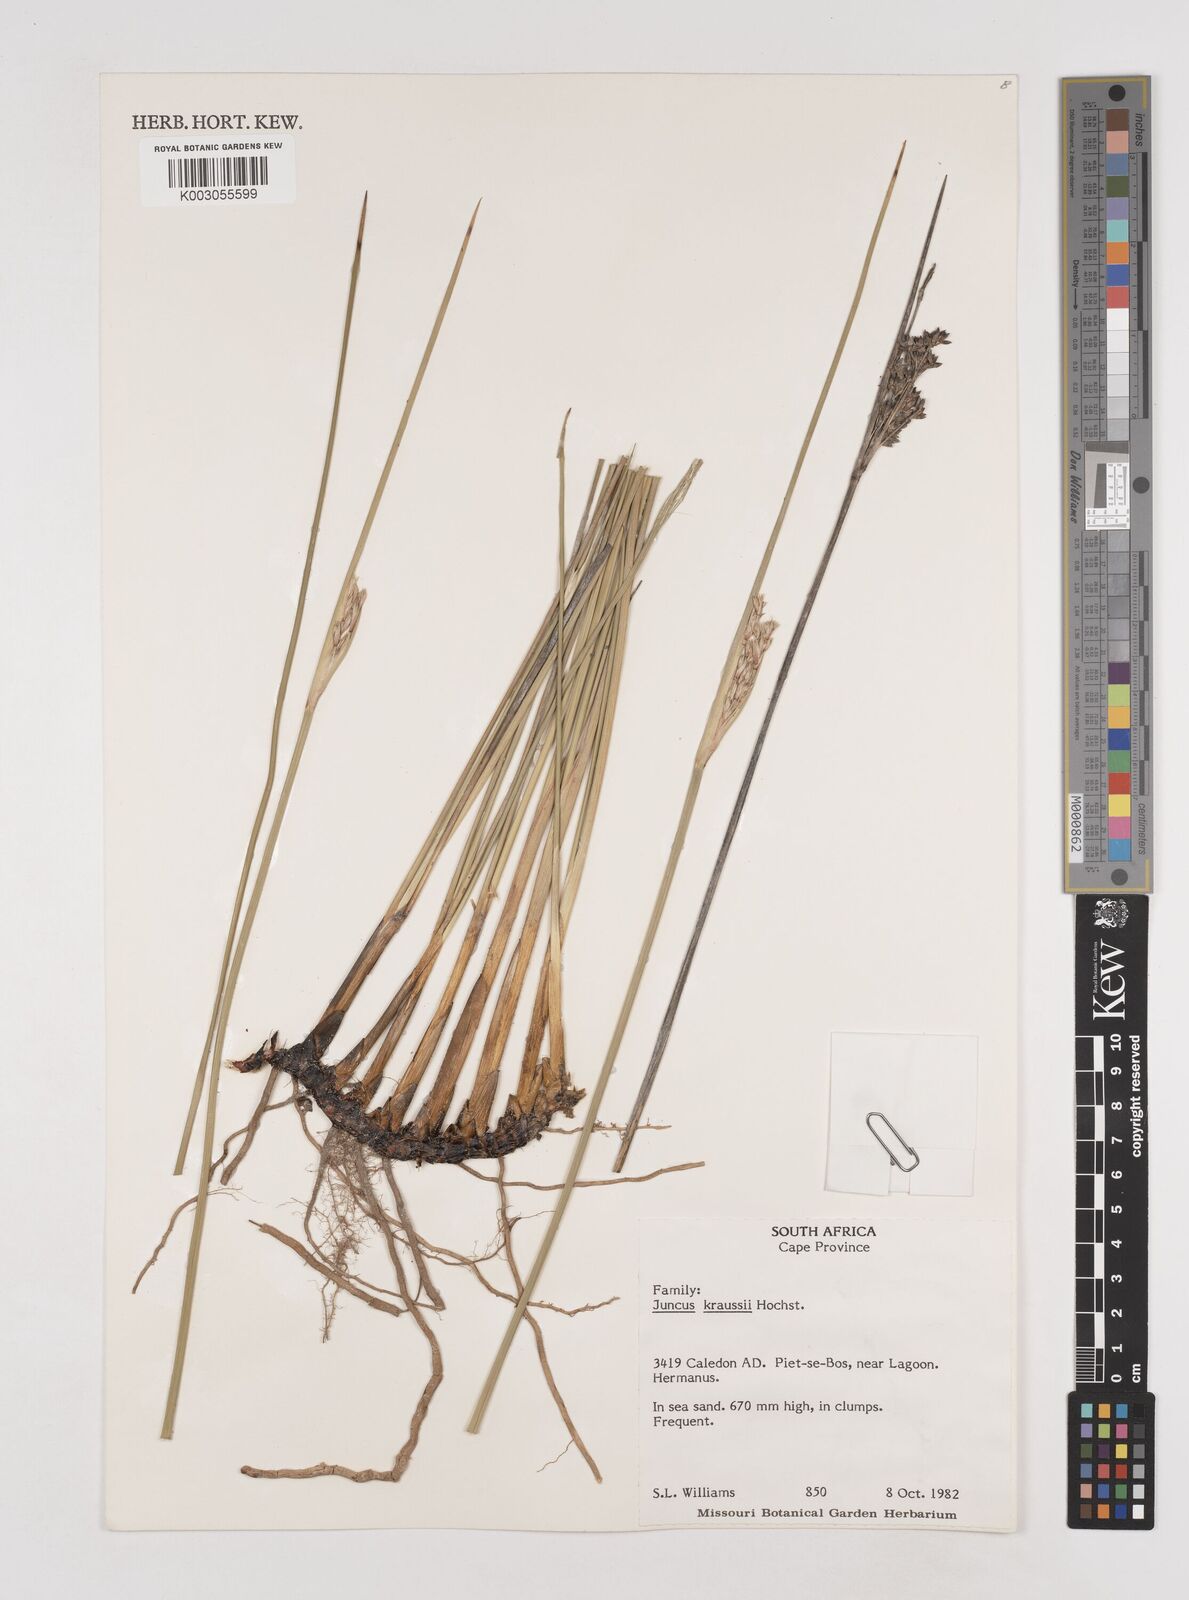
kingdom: Plantae
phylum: Tracheophyta
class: Liliopsida
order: Poales
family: Juncaceae
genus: Juncus
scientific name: Juncus kraussii
